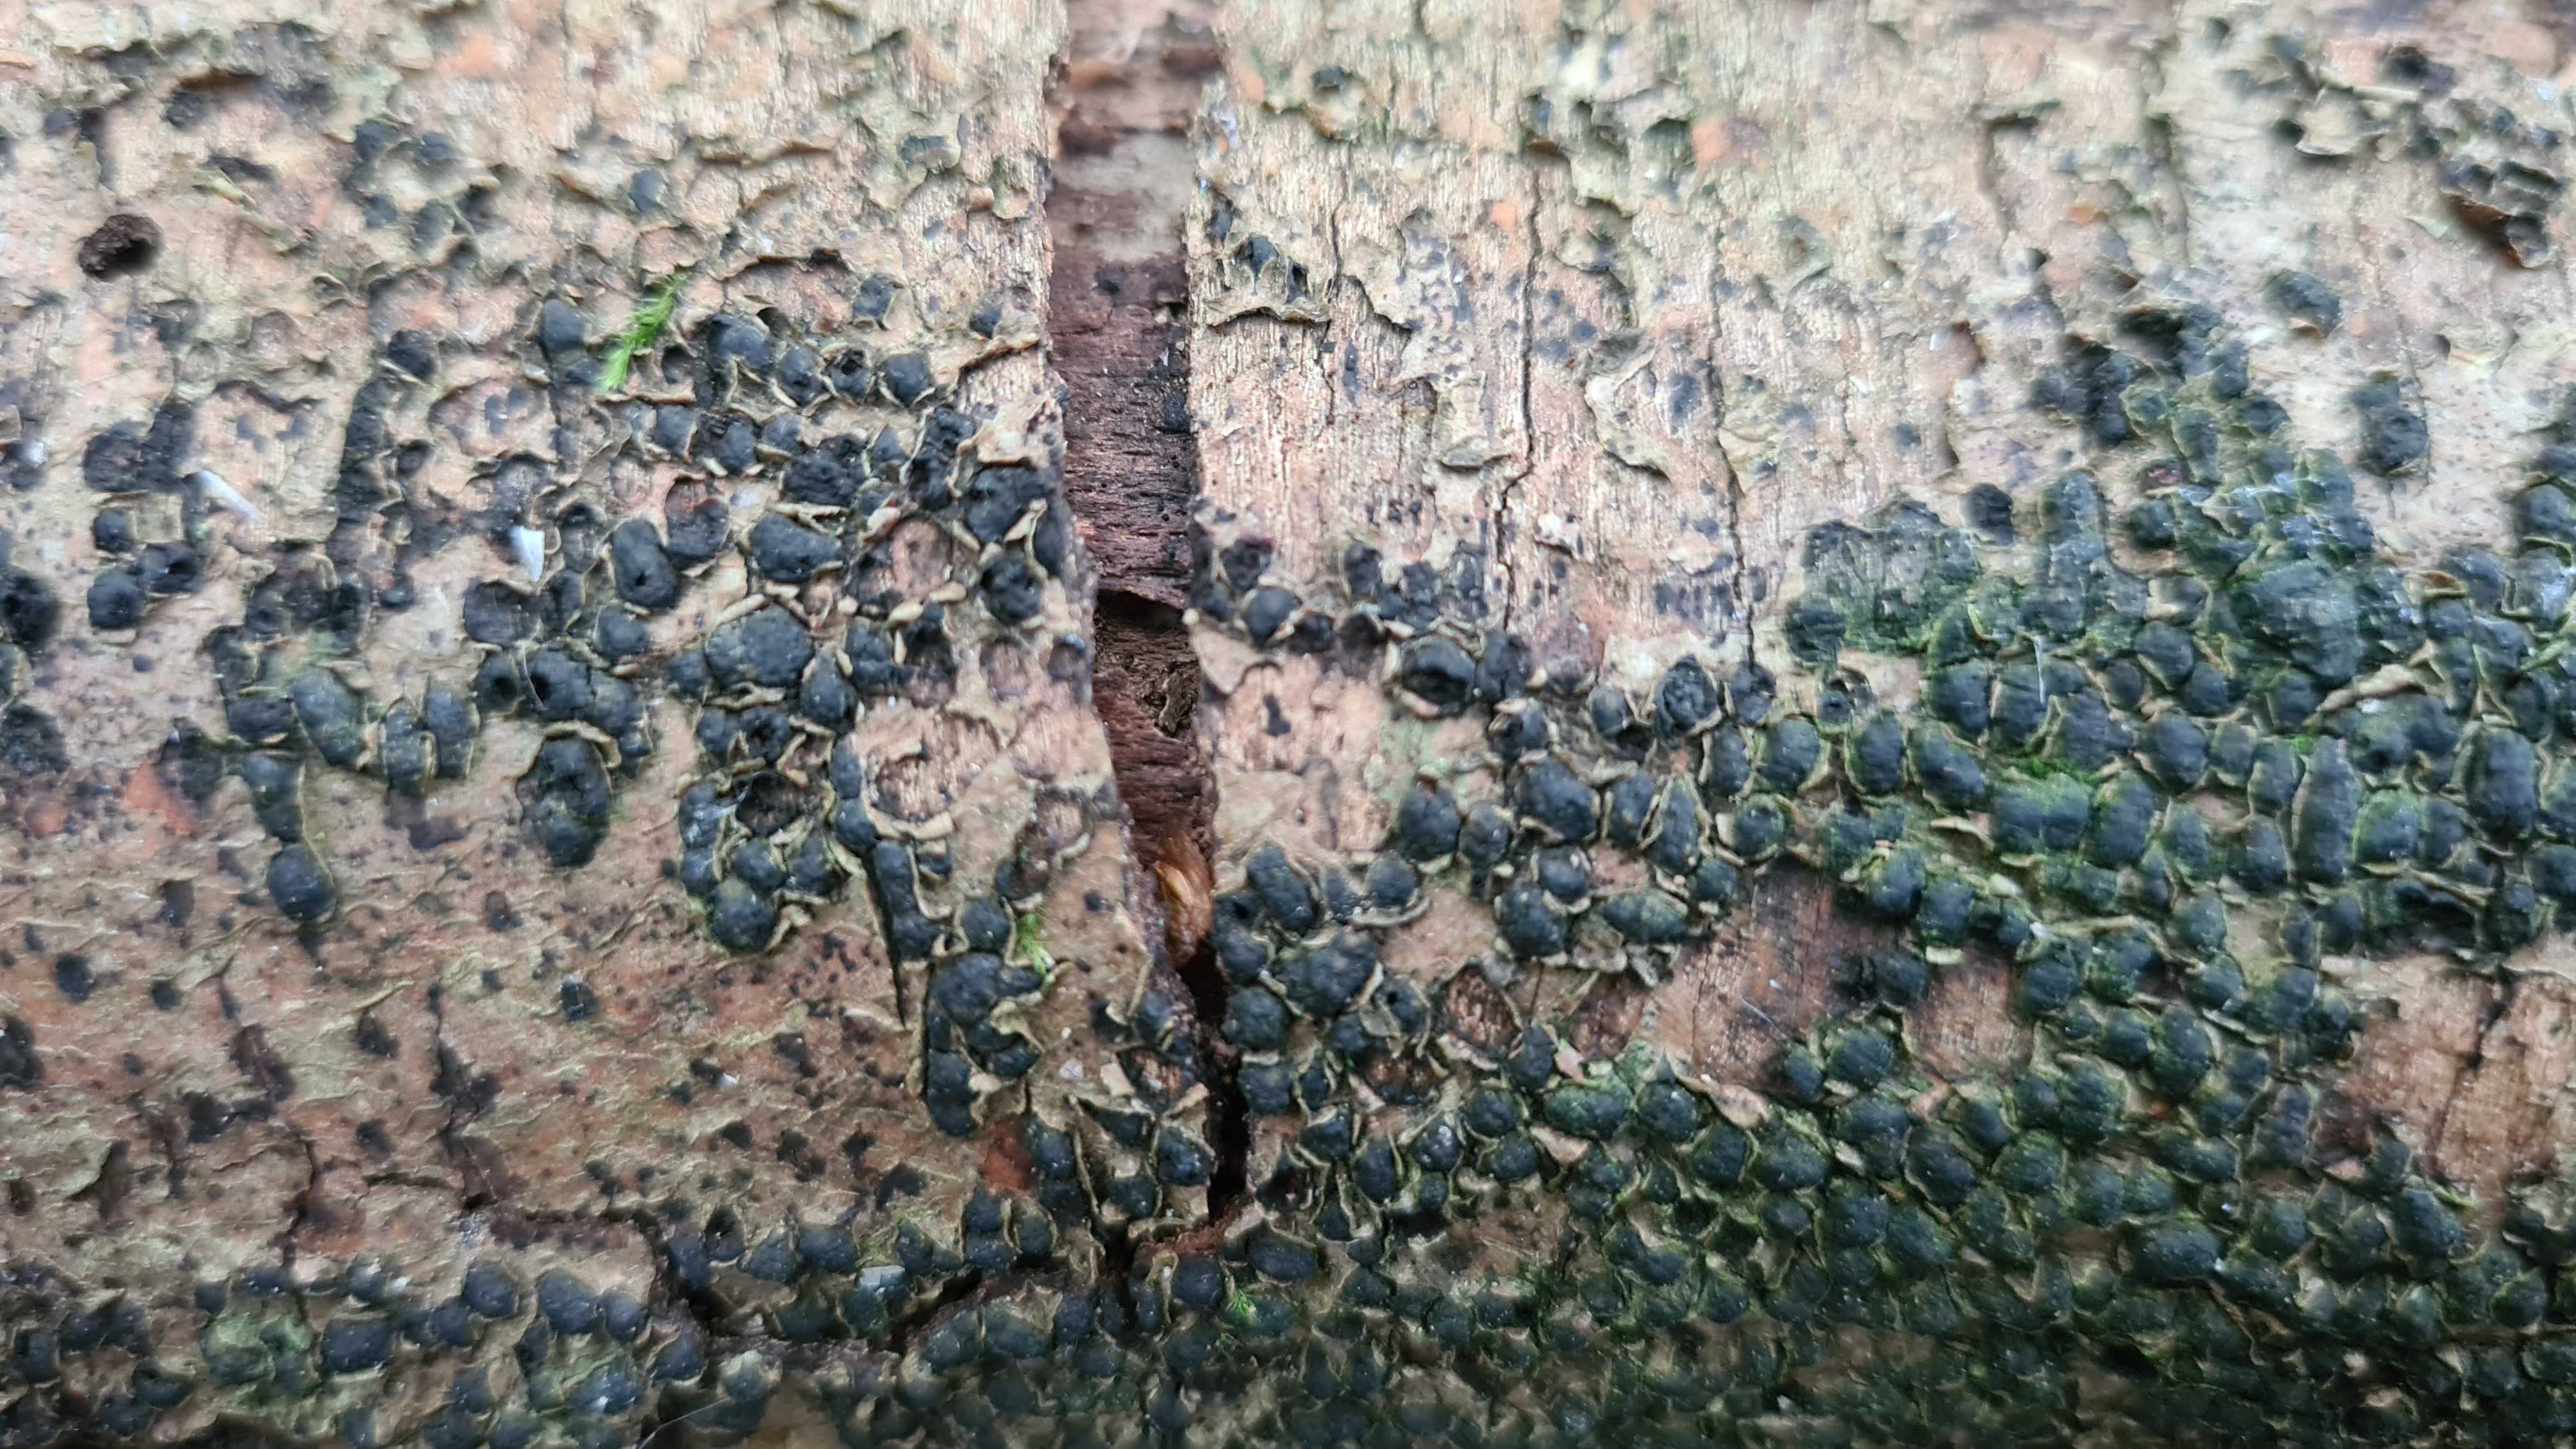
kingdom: Fungi
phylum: Ascomycota
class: Sordariomycetes
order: Xylariales
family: Melogrammataceae
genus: Melogramma
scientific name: Melogramma spiniferum
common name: bøgefod-kulhals
